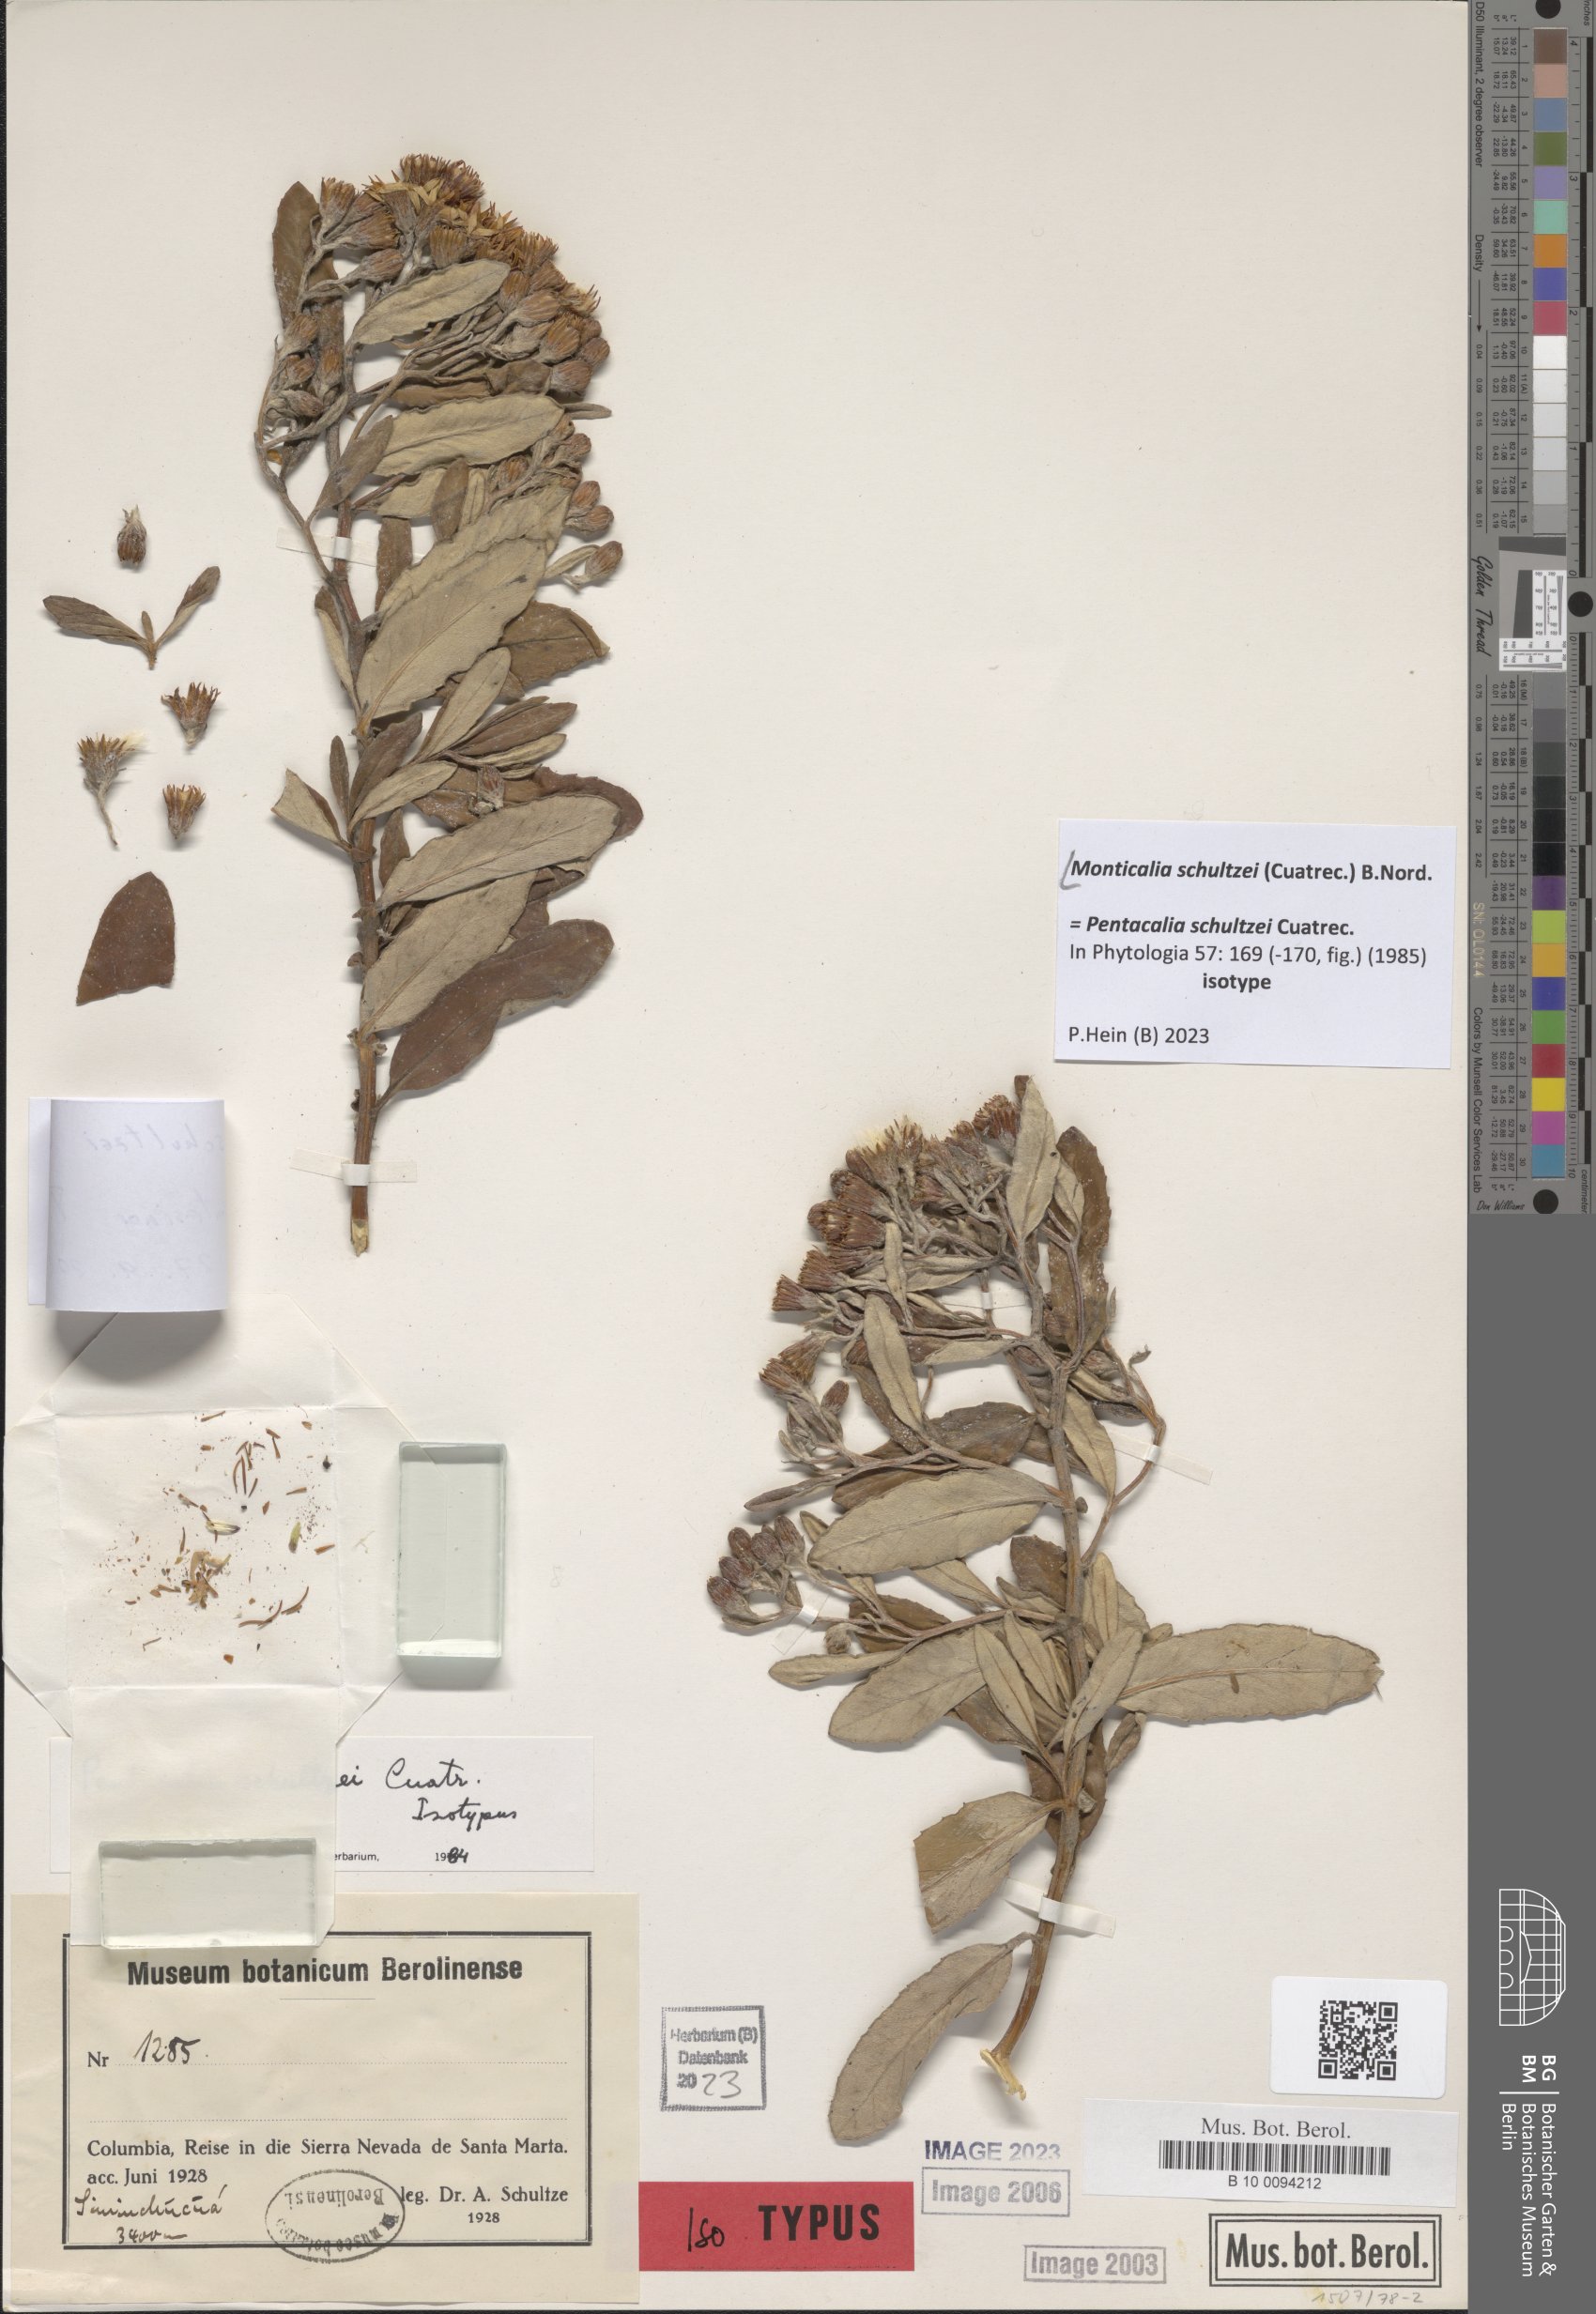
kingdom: Plantae
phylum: Tracheophyta
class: Magnoliopsida
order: Asterales
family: Asteraceae
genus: Monticalia
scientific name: Monticalia schultzei
